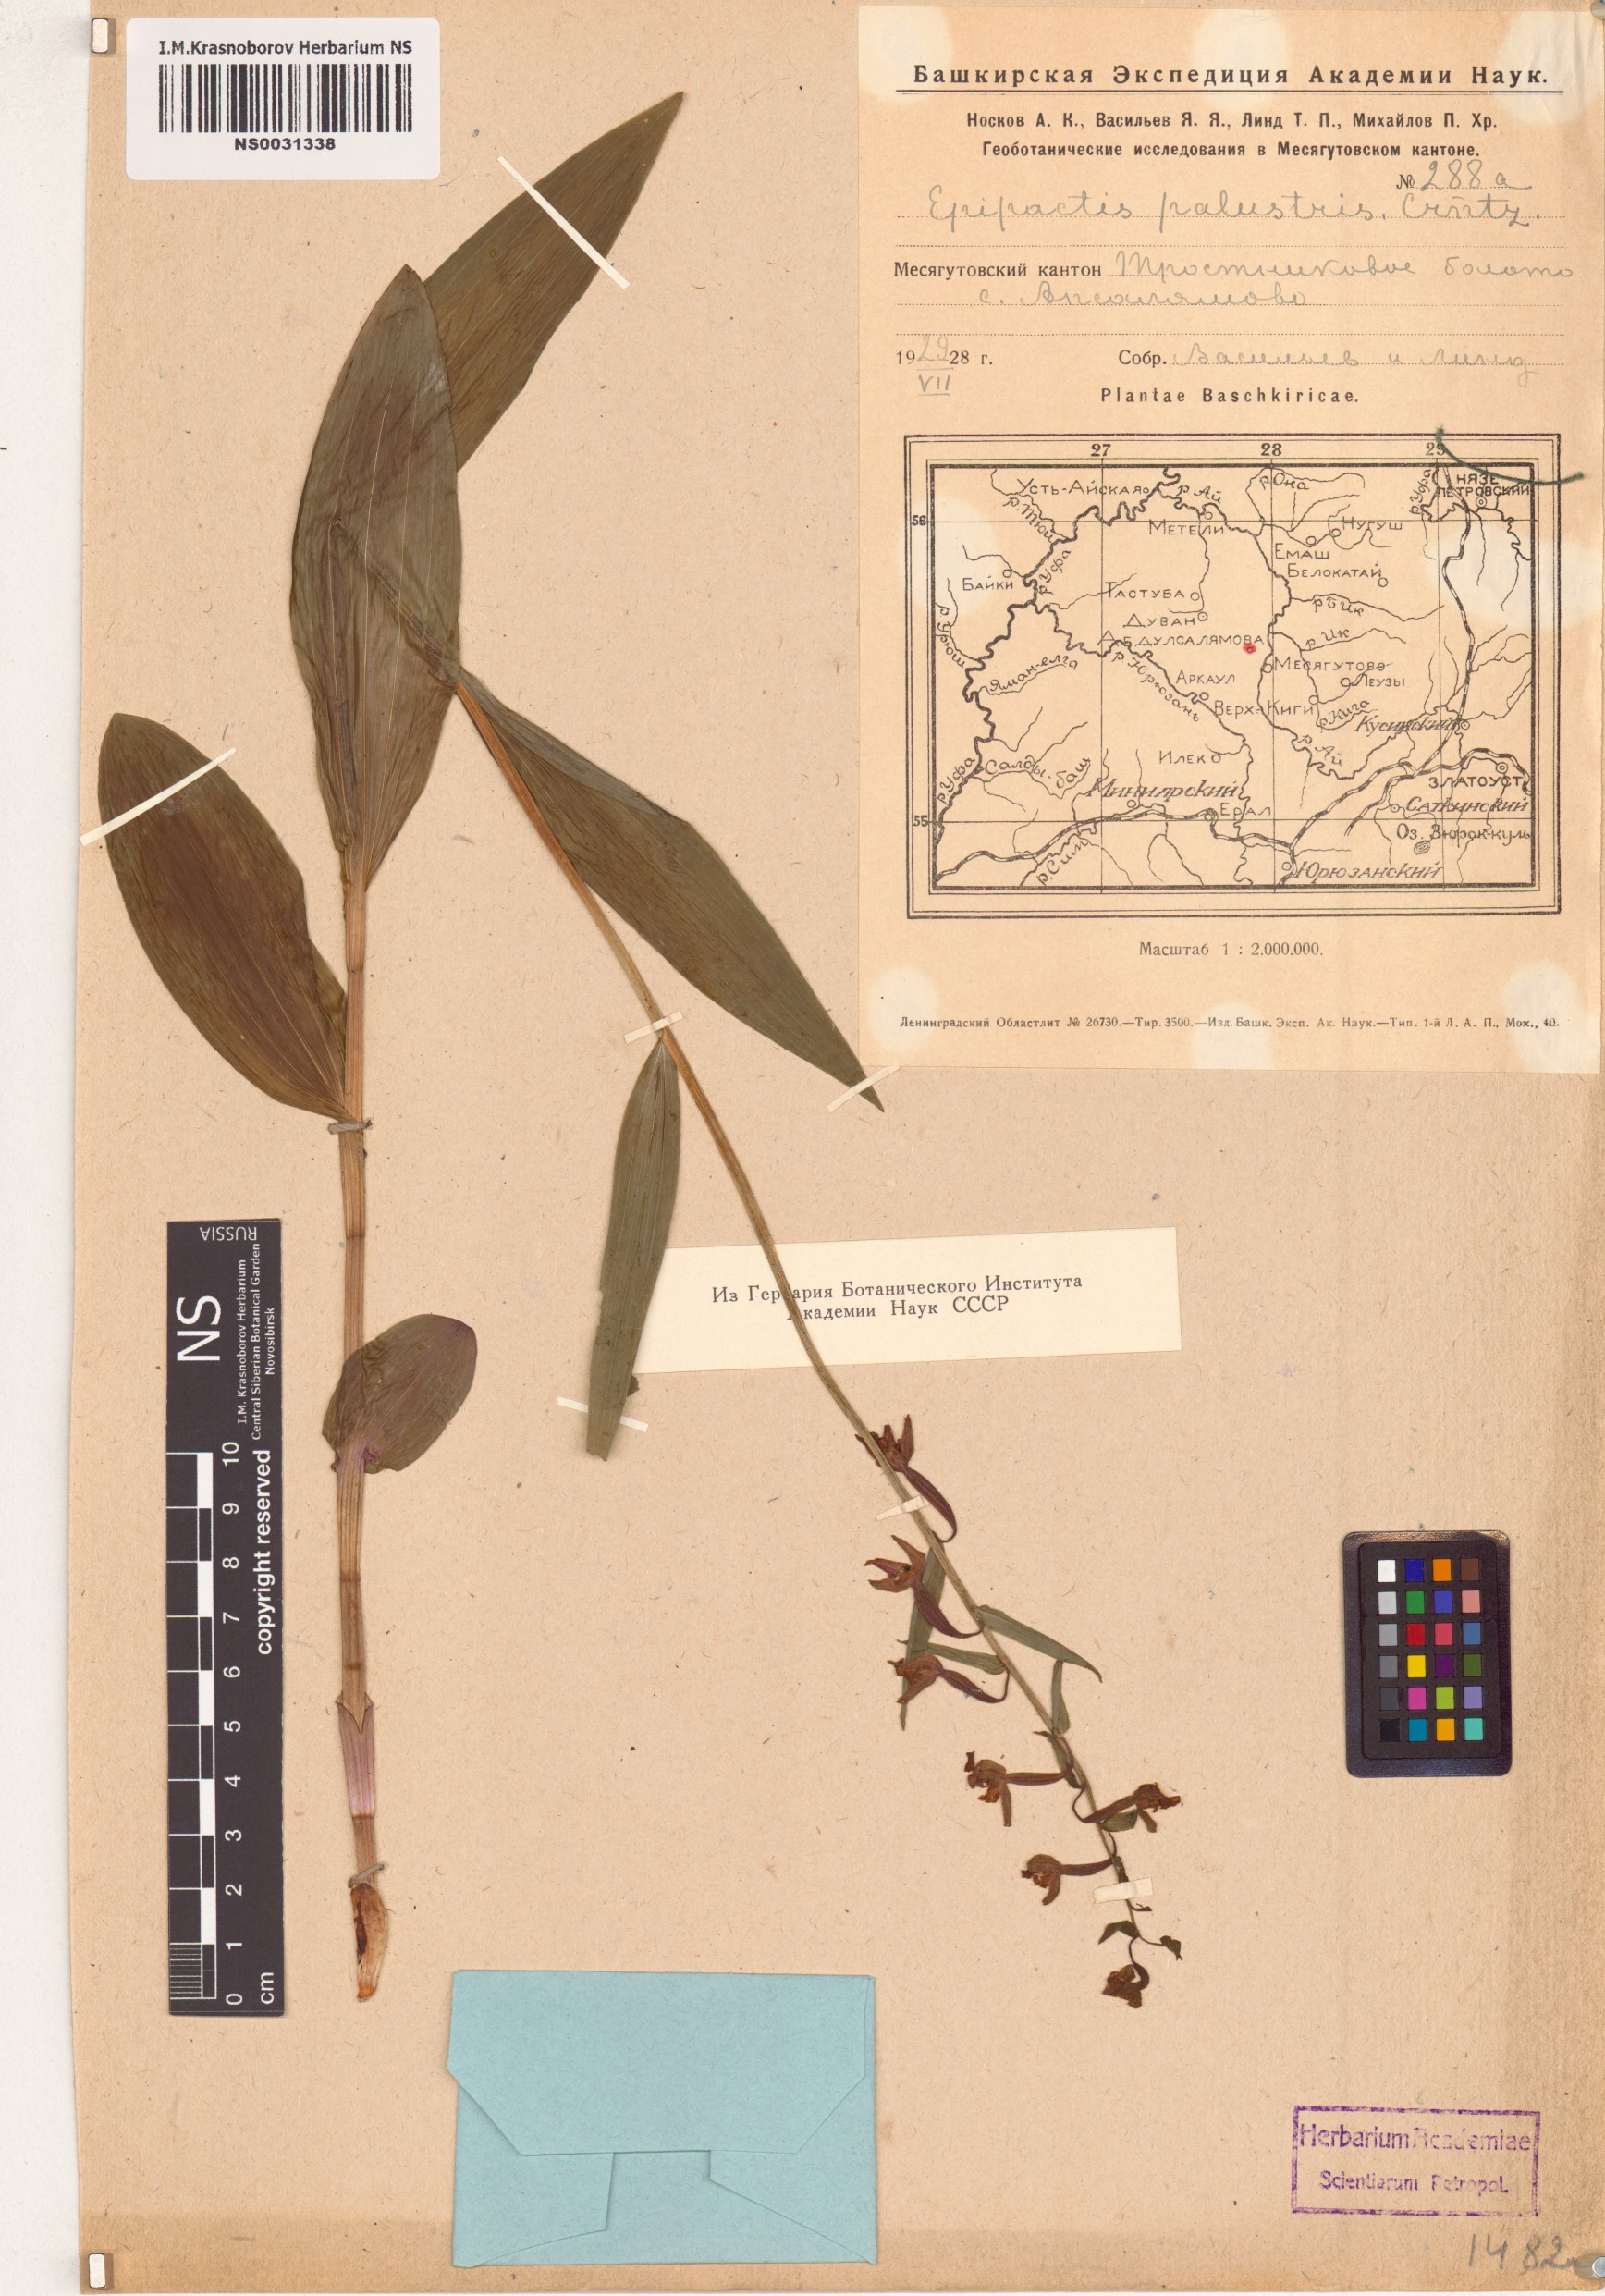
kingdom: Plantae
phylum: Tracheophyta
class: Liliopsida
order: Asparagales
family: Orchidaceae
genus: Epipactis
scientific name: Epipactis palustris
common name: Marsh helleborine
